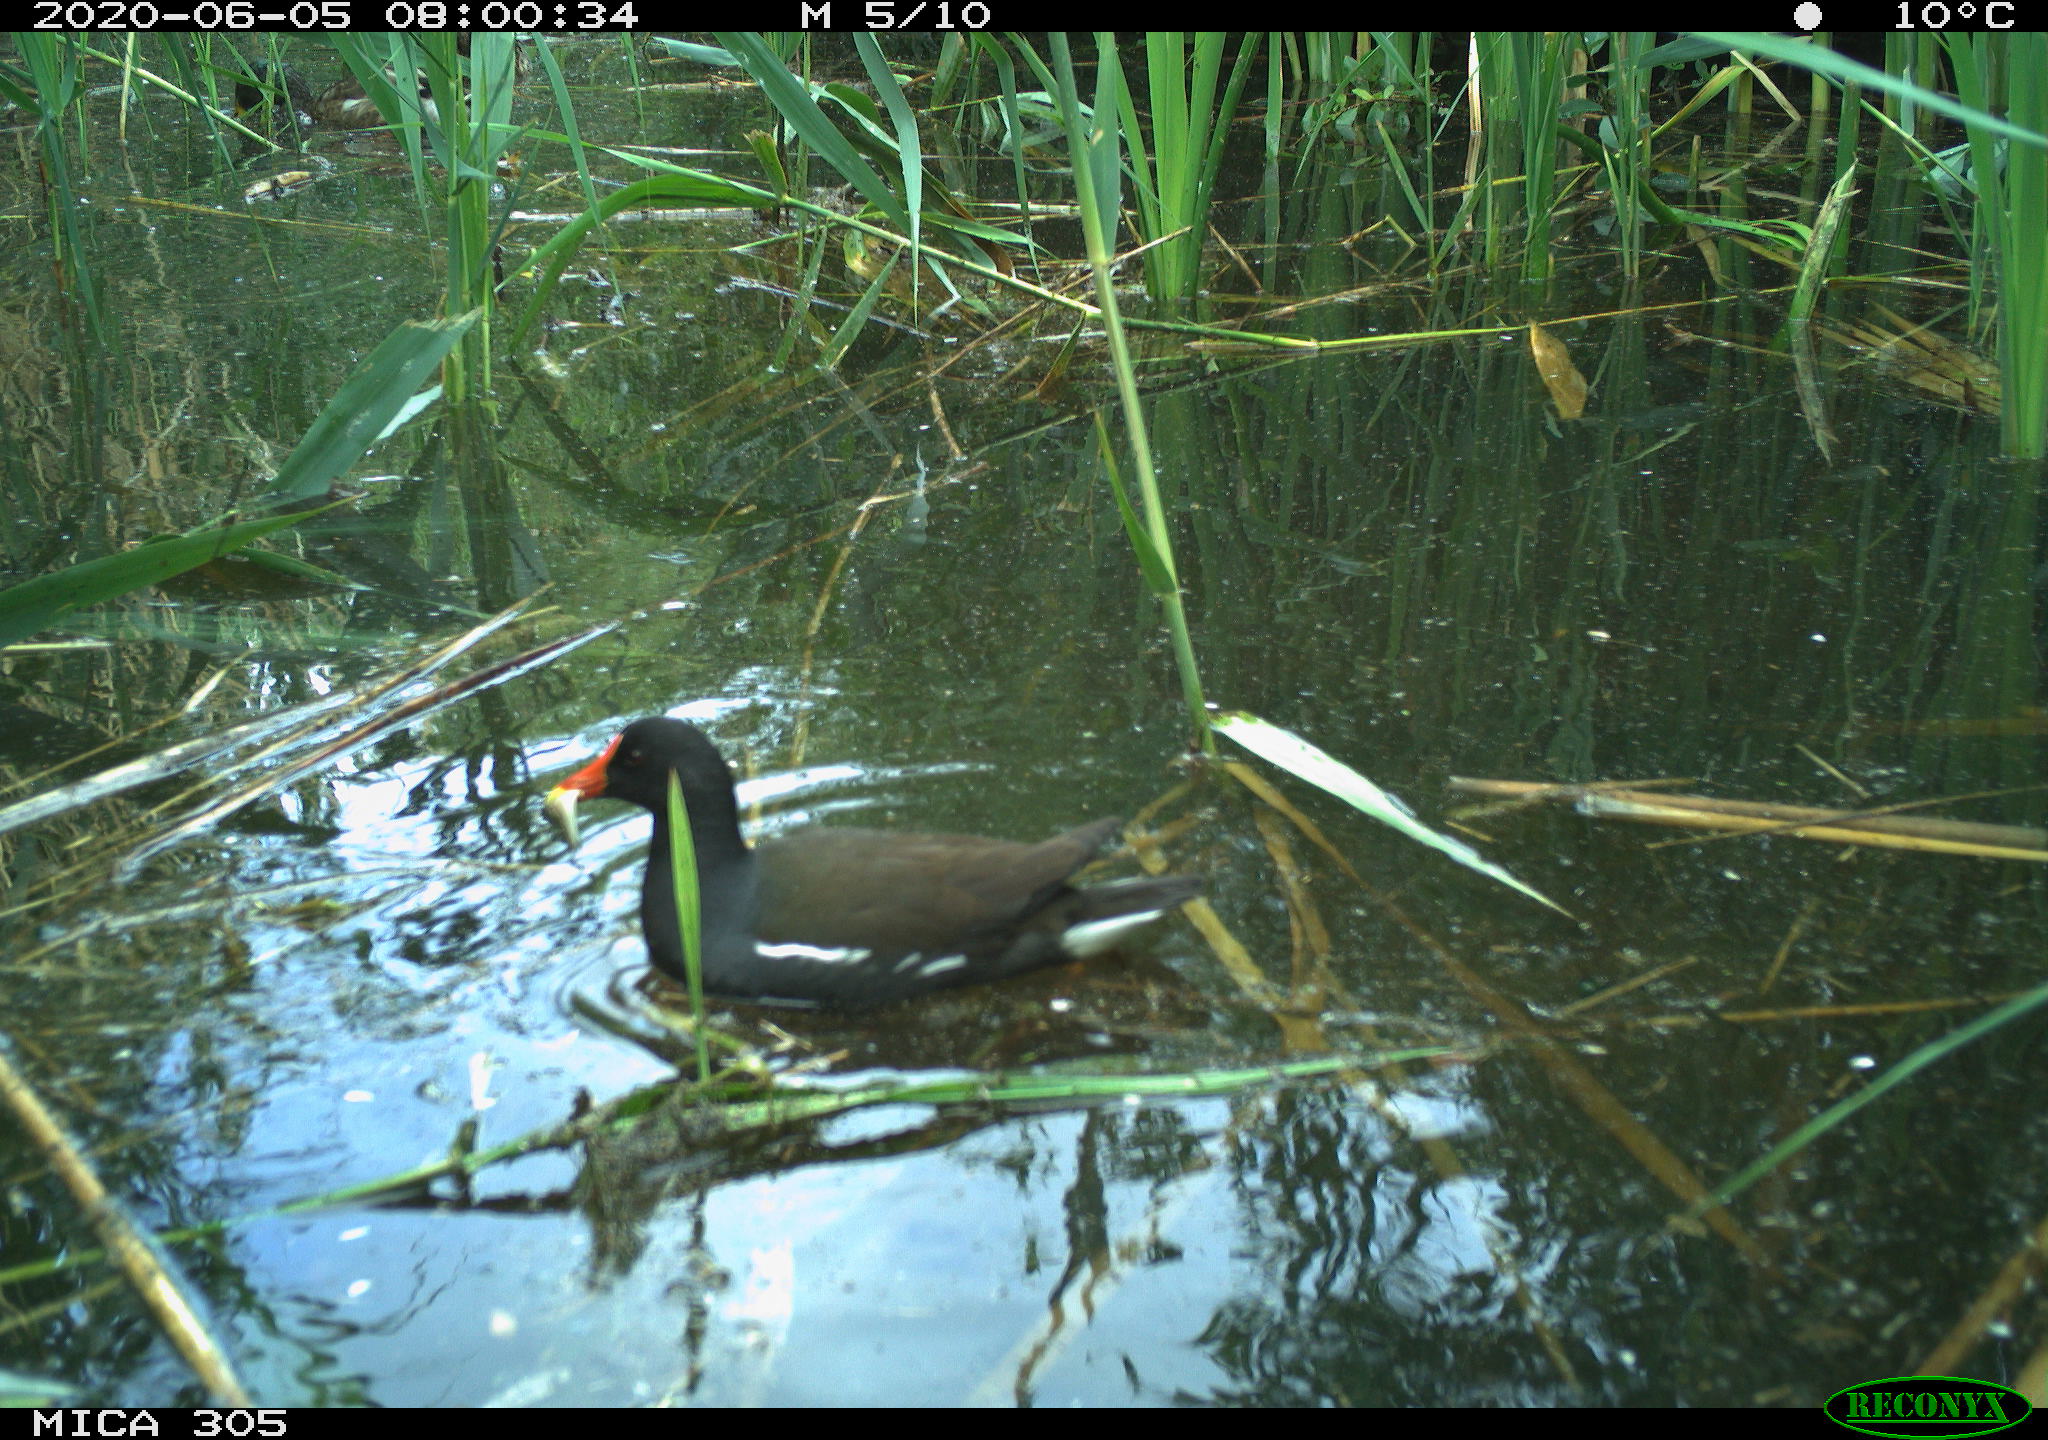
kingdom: Animalia
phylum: Chordata
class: Aves
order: Gruiformes
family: Rallidae
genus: Gallinula
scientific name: Gallinula chloropus
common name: Common moorhen
